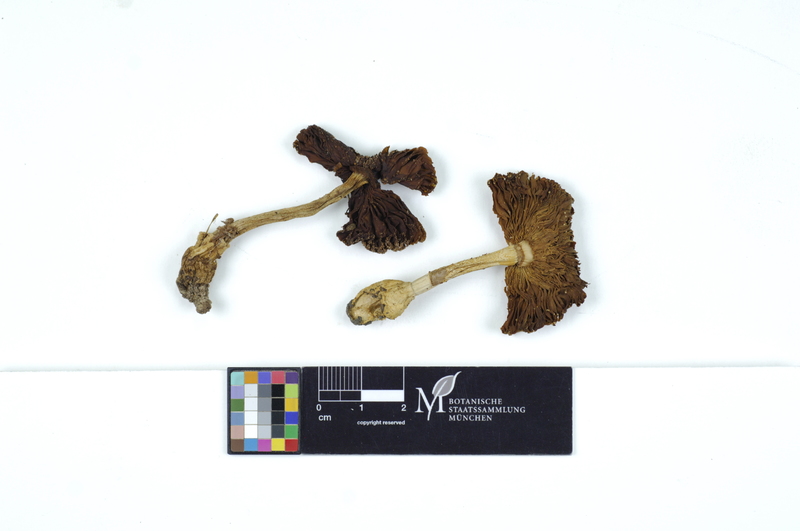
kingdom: Fungi
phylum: Basidiomycota
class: Agaricomycetes
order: Agaricales
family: Amanitaceae
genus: Amanita
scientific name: Amanita gemmata
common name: Jewelled amanita
